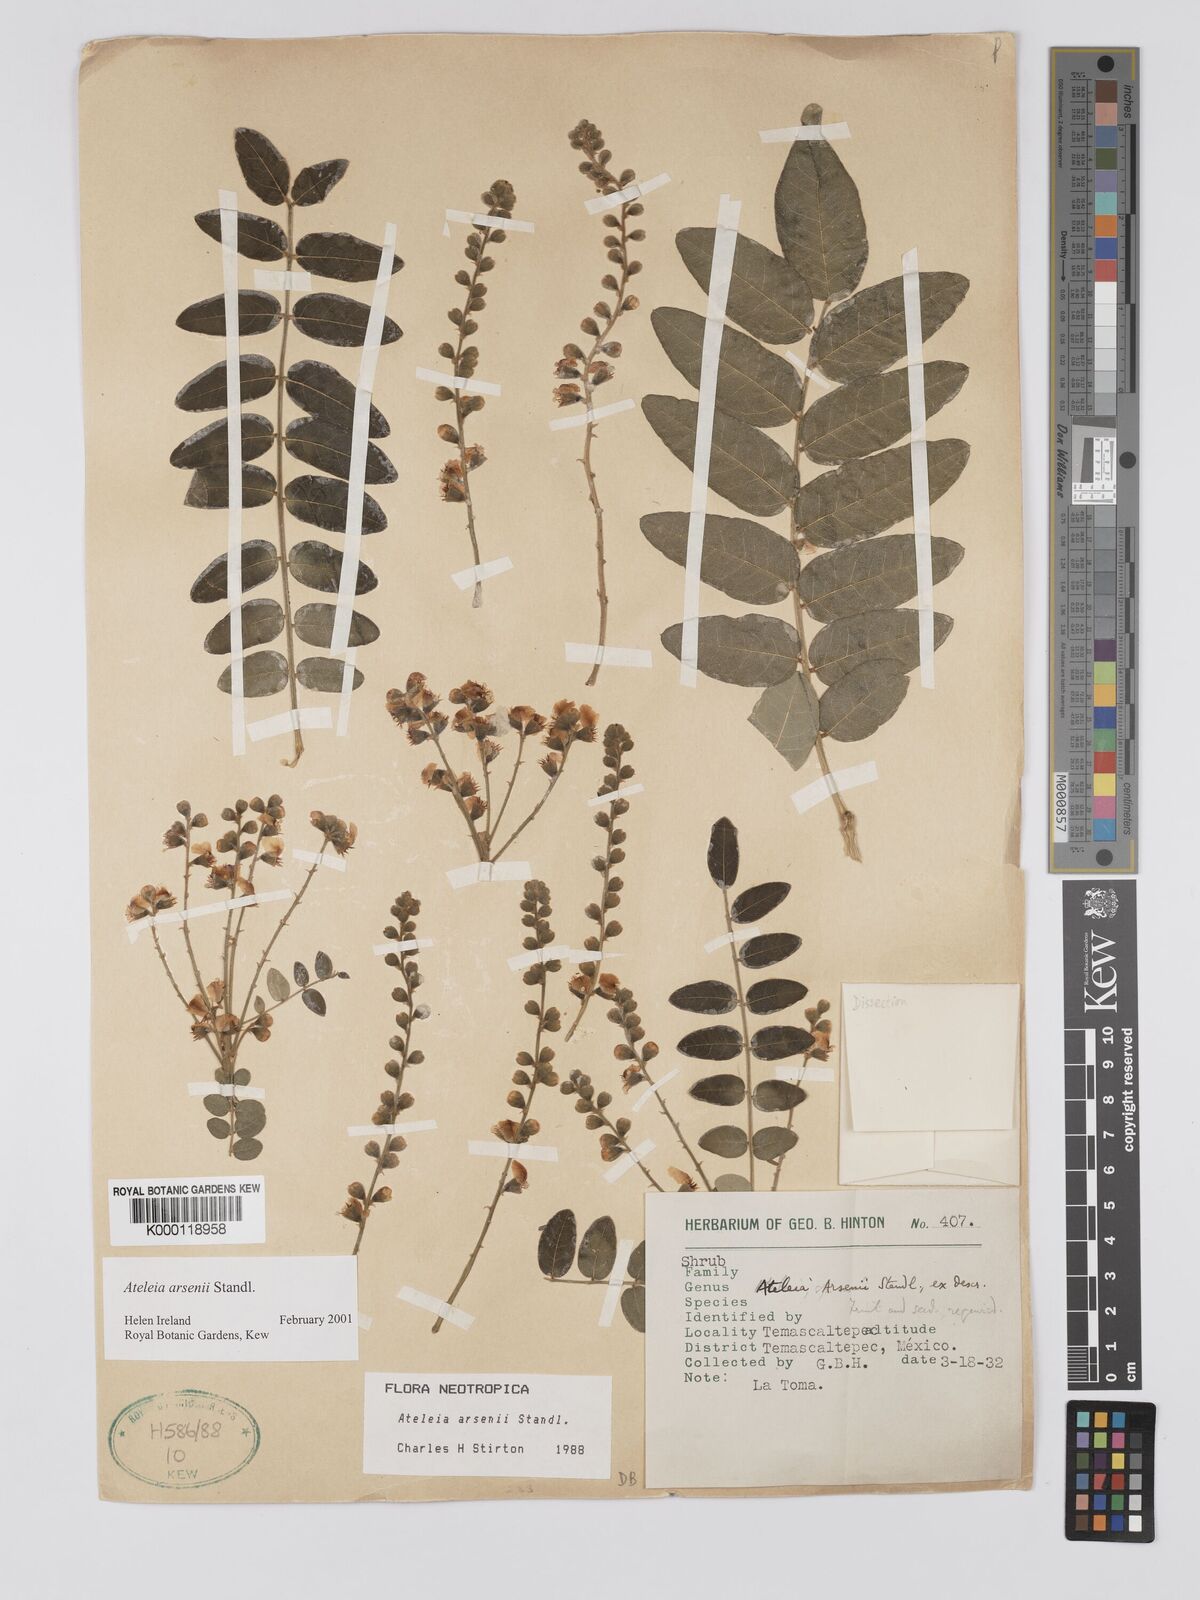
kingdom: Plantae
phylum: Tracheophyta
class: Magnoliopsida
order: Fabales
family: Fabaceae
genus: Ateleia
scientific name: Ateleia arsenii
